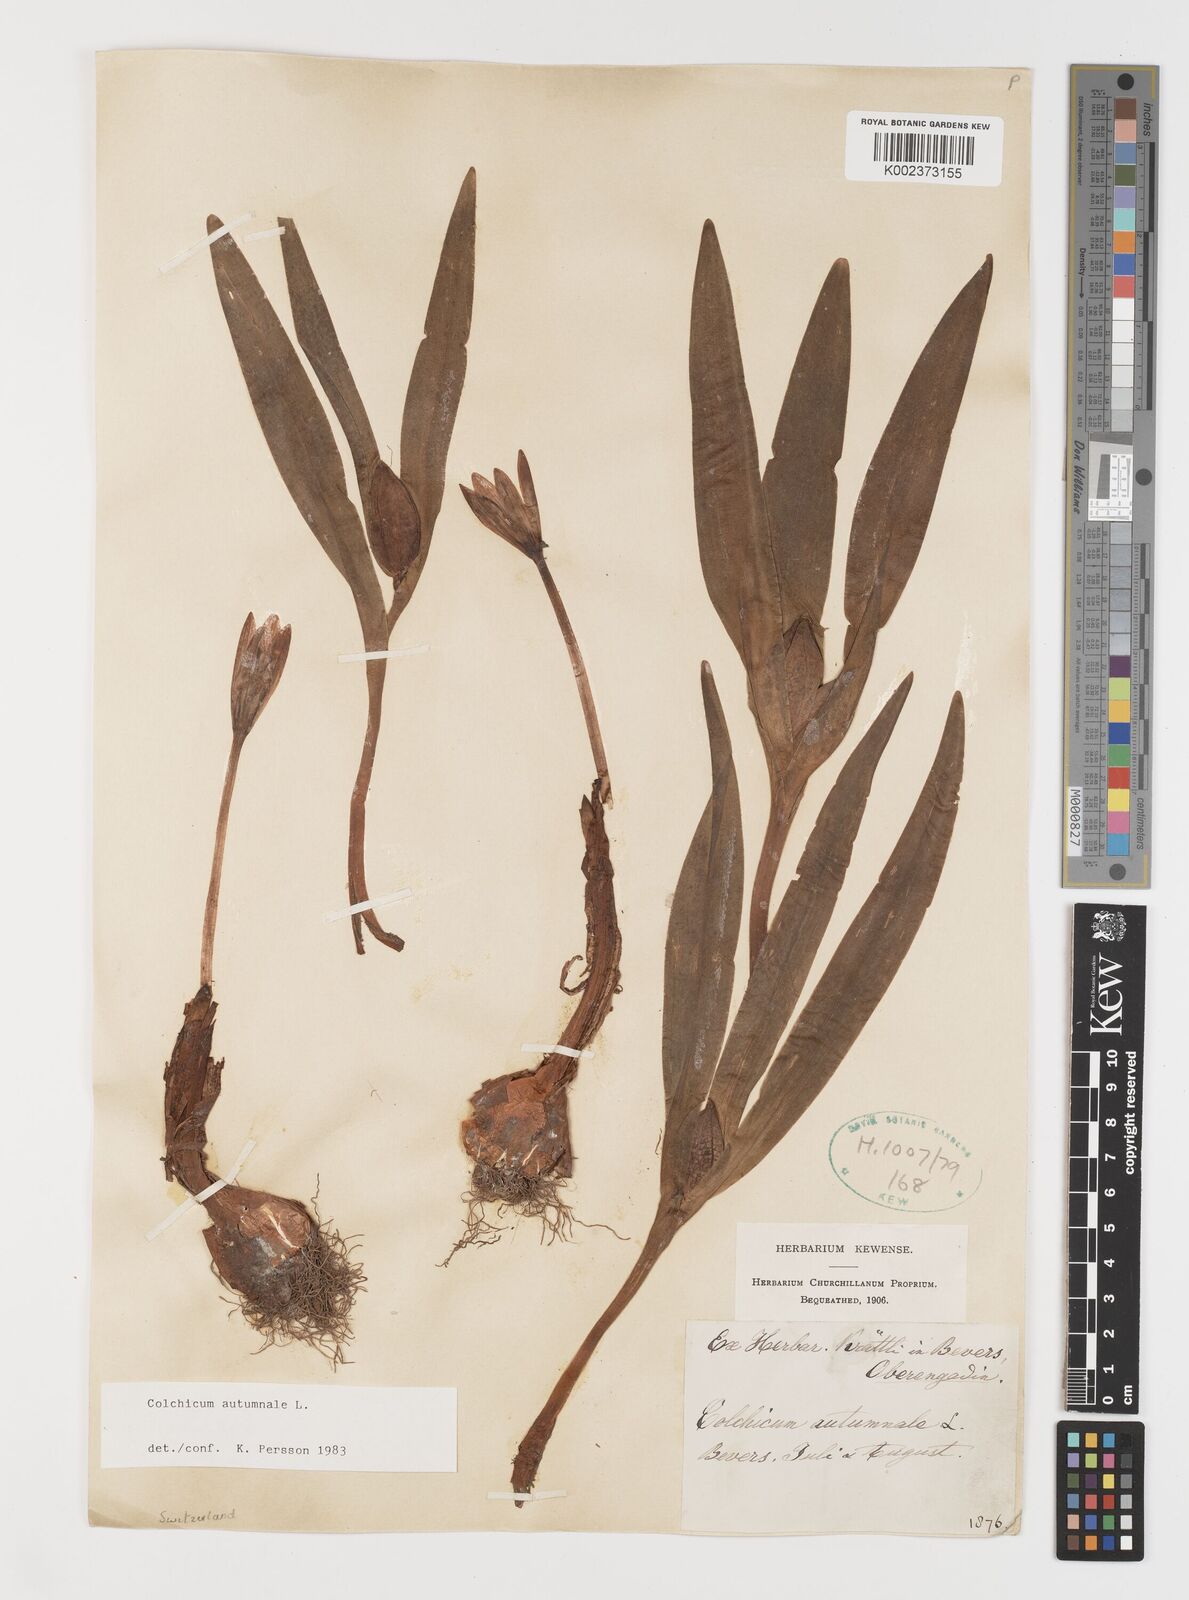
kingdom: Plantae
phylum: Tracheophyta
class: Liliopsida
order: Liliales
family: Colchicaceae
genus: Colchicum
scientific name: Colchicum autumnale
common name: Autumn crocus
